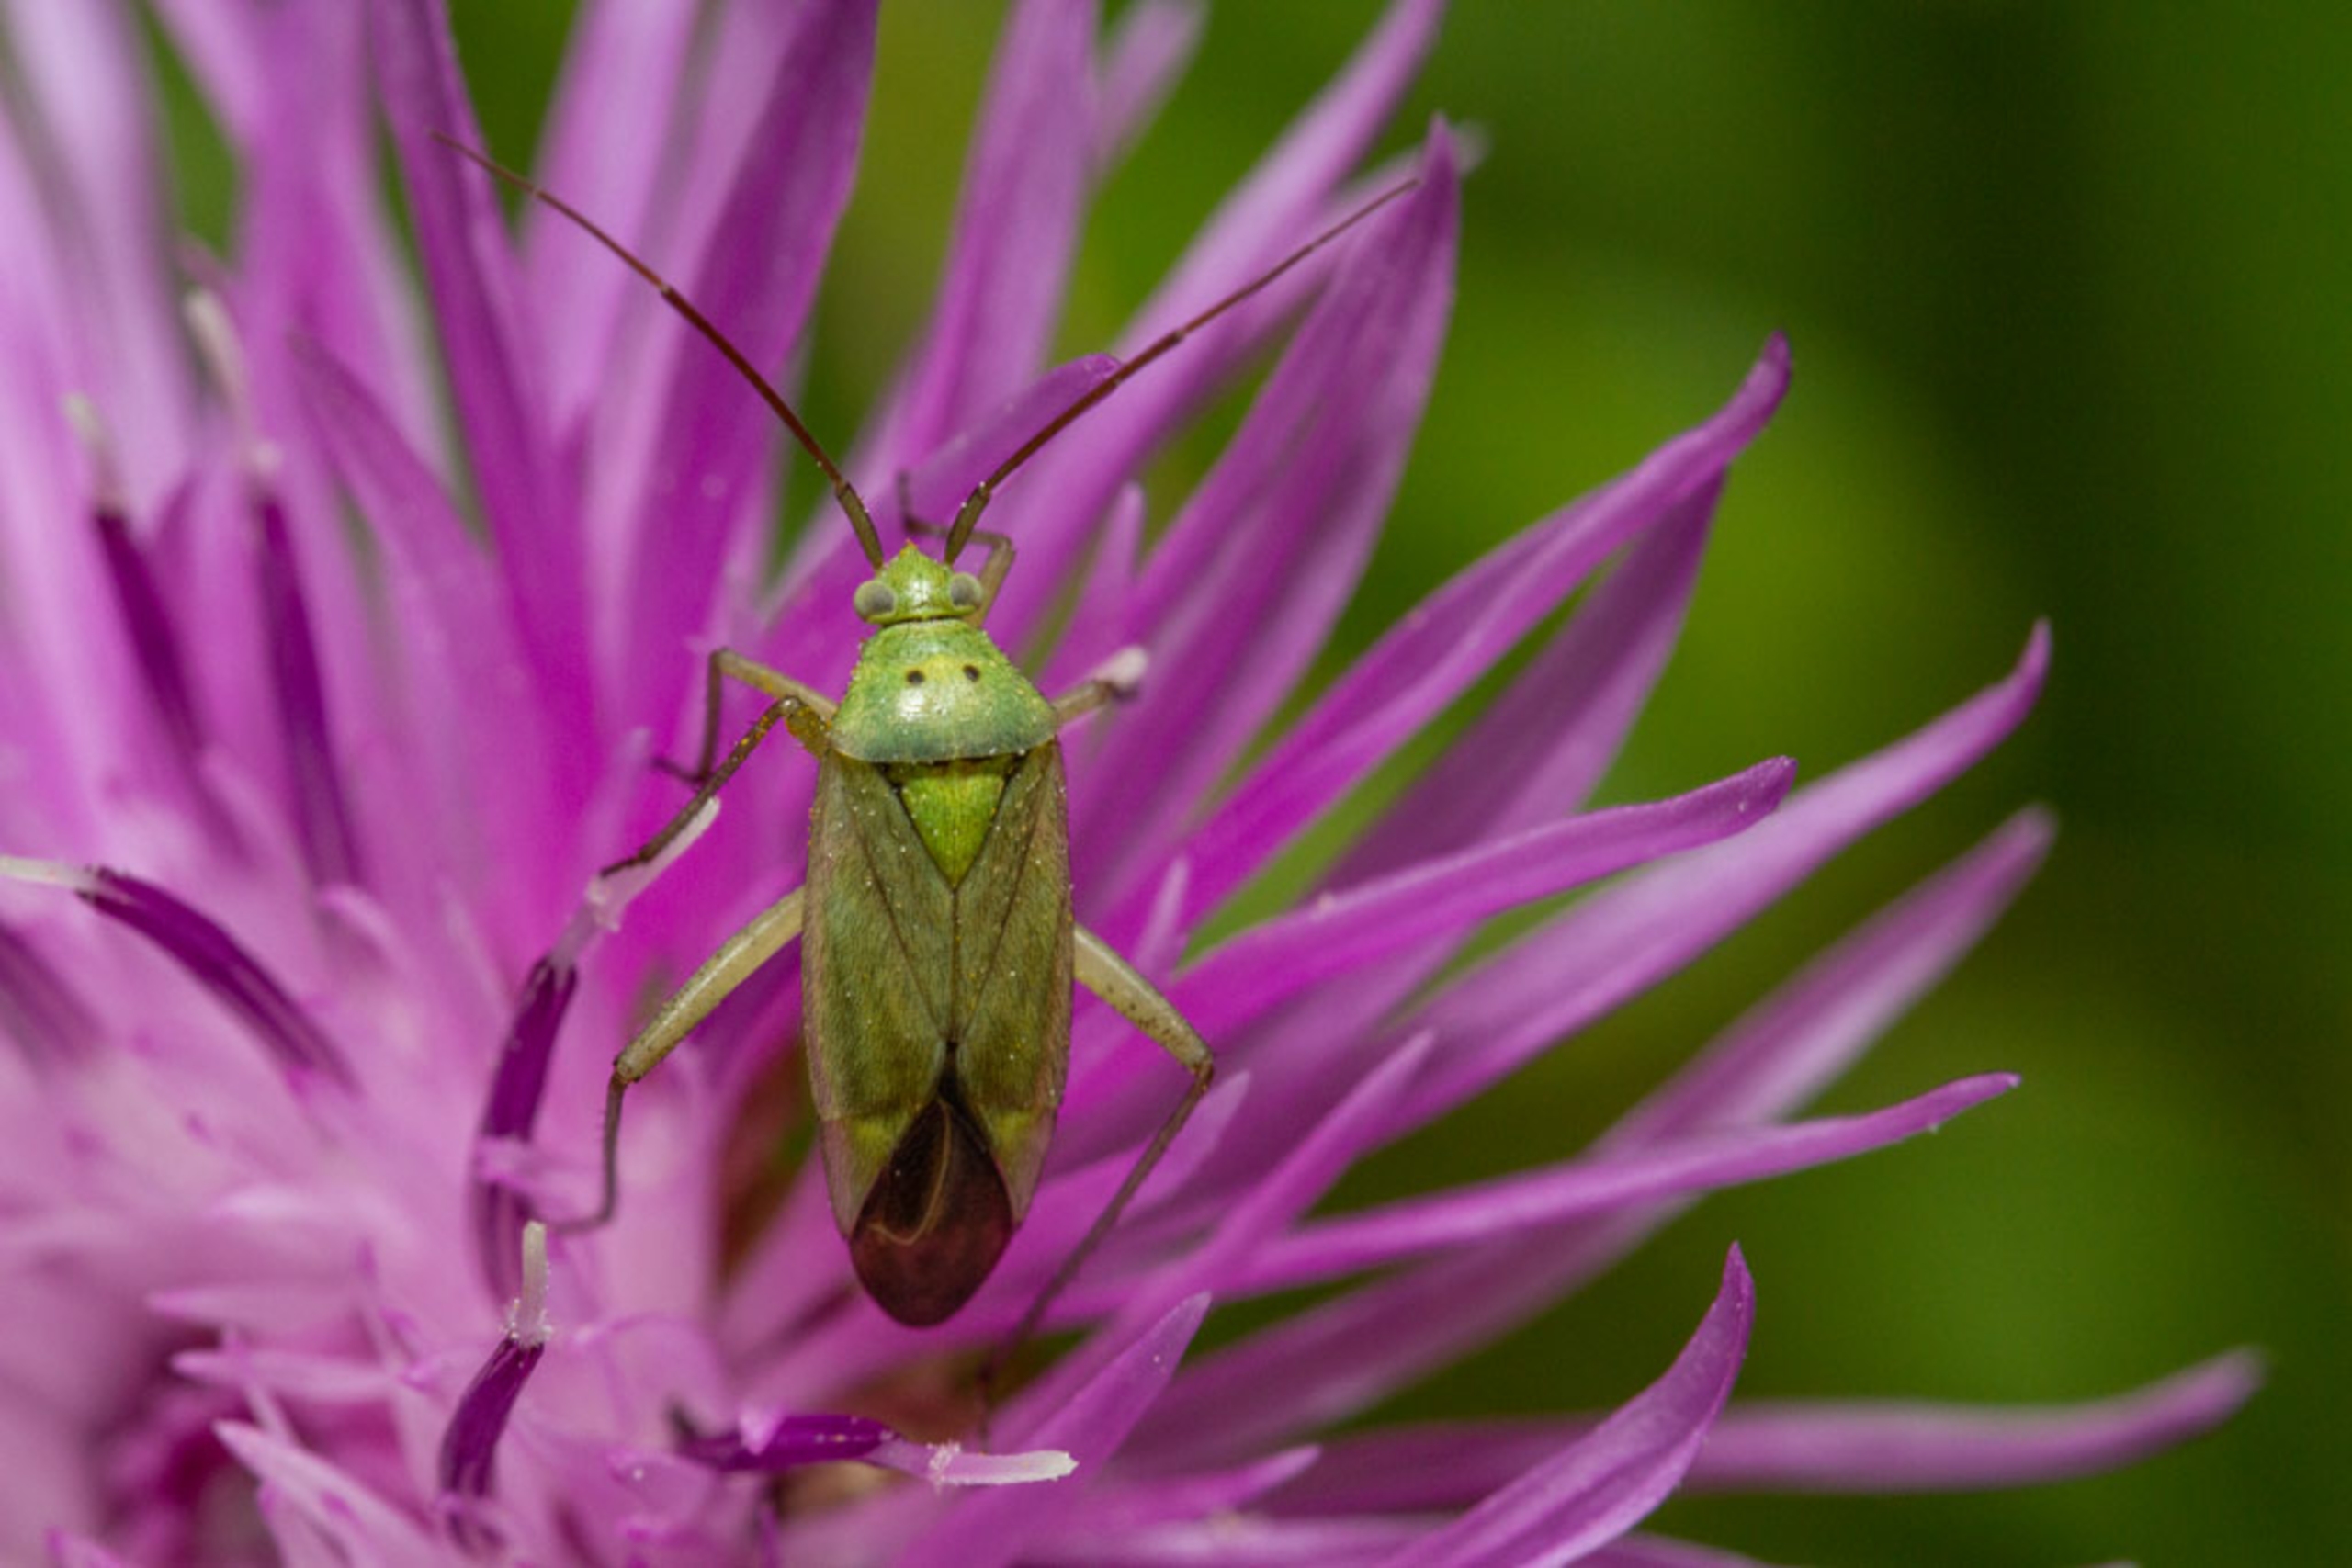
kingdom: Animalia
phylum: Arthropoda
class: Insecta
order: Hemiptera
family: Miridae
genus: Closterotomus
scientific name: Closterotomus norvegicus
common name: Toplettet bederoetæge
